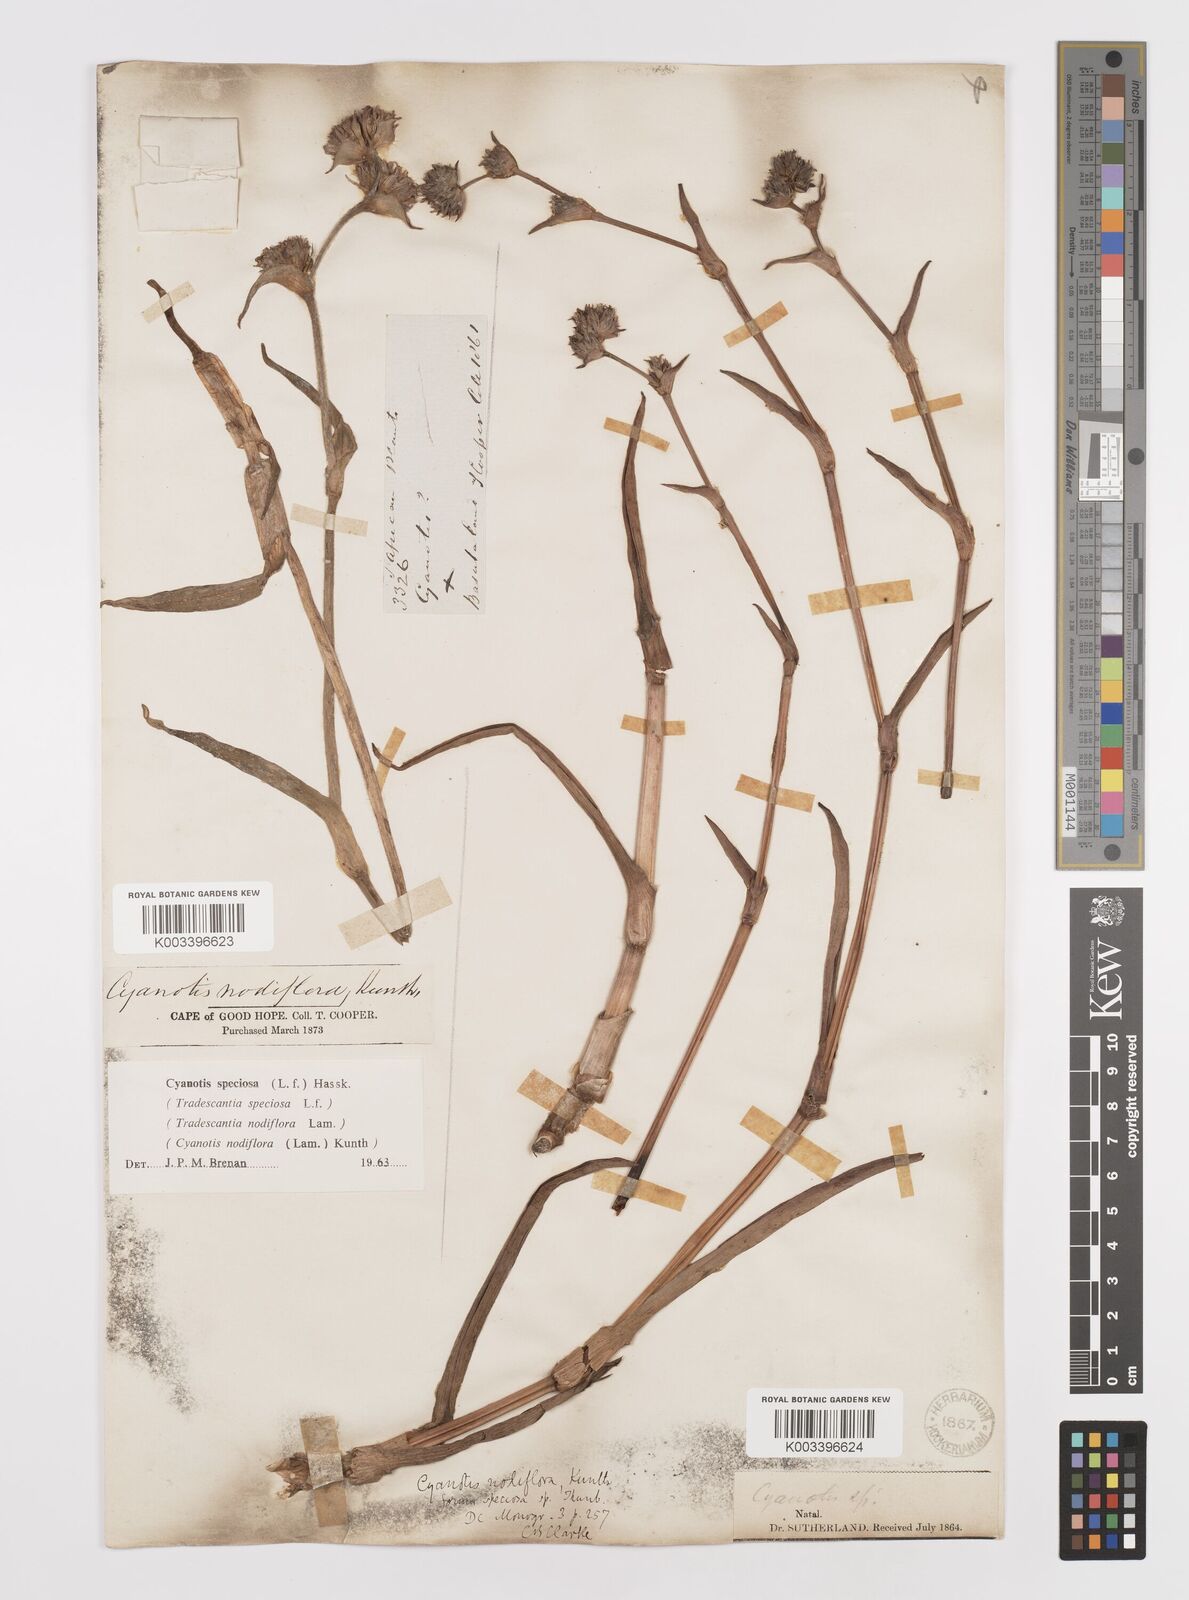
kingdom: Plantae
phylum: Tracheophyta
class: Liliopsida
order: Commelinales
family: Commelinaceae
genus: Cyanotis
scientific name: Cyanotis speciosa
